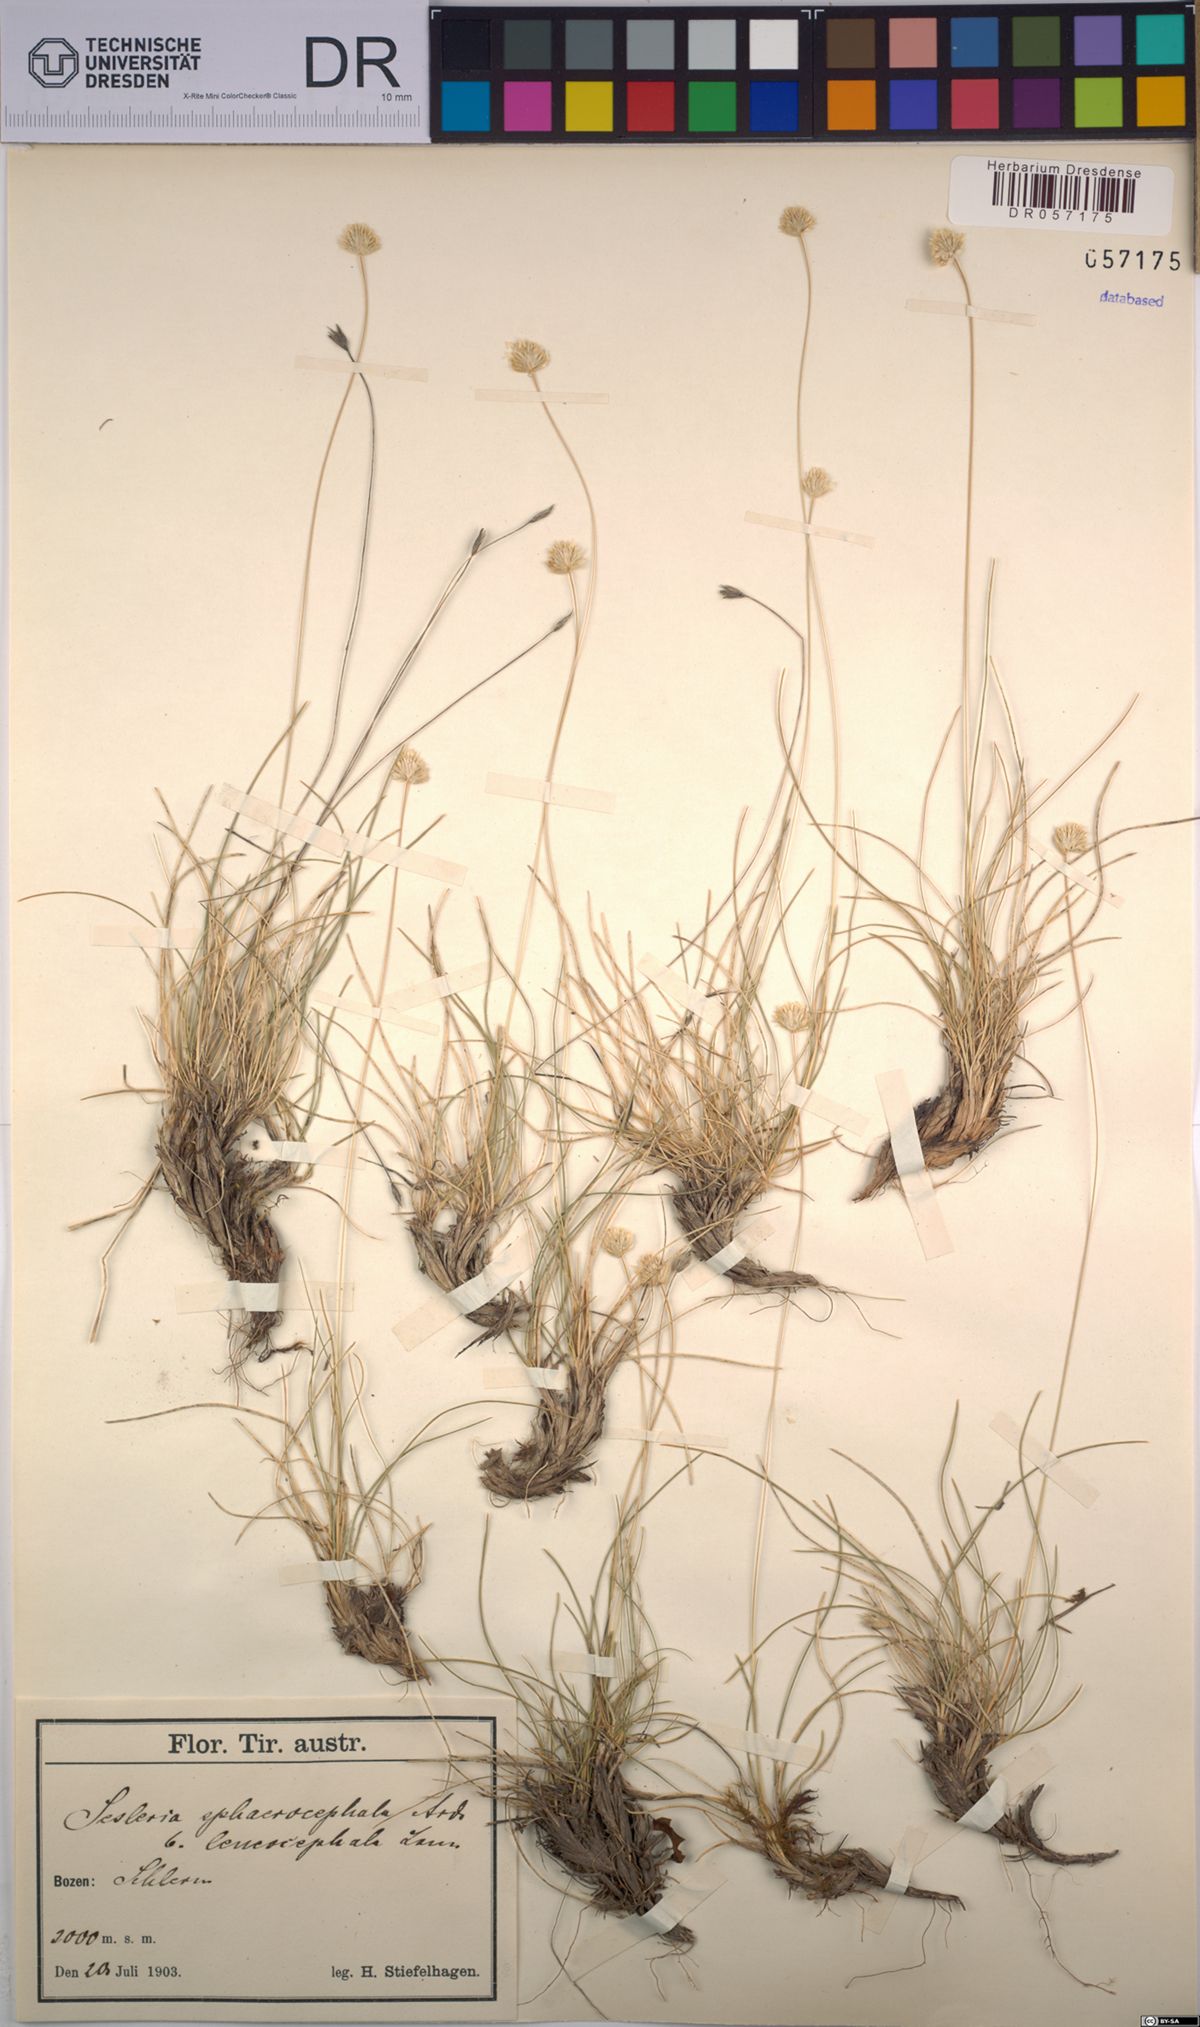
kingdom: Plantae
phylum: Tracheophyta
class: Liliopsida
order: Poales
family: Poaceae
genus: Sesleriella
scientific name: Sesleriella sphaerocephala
